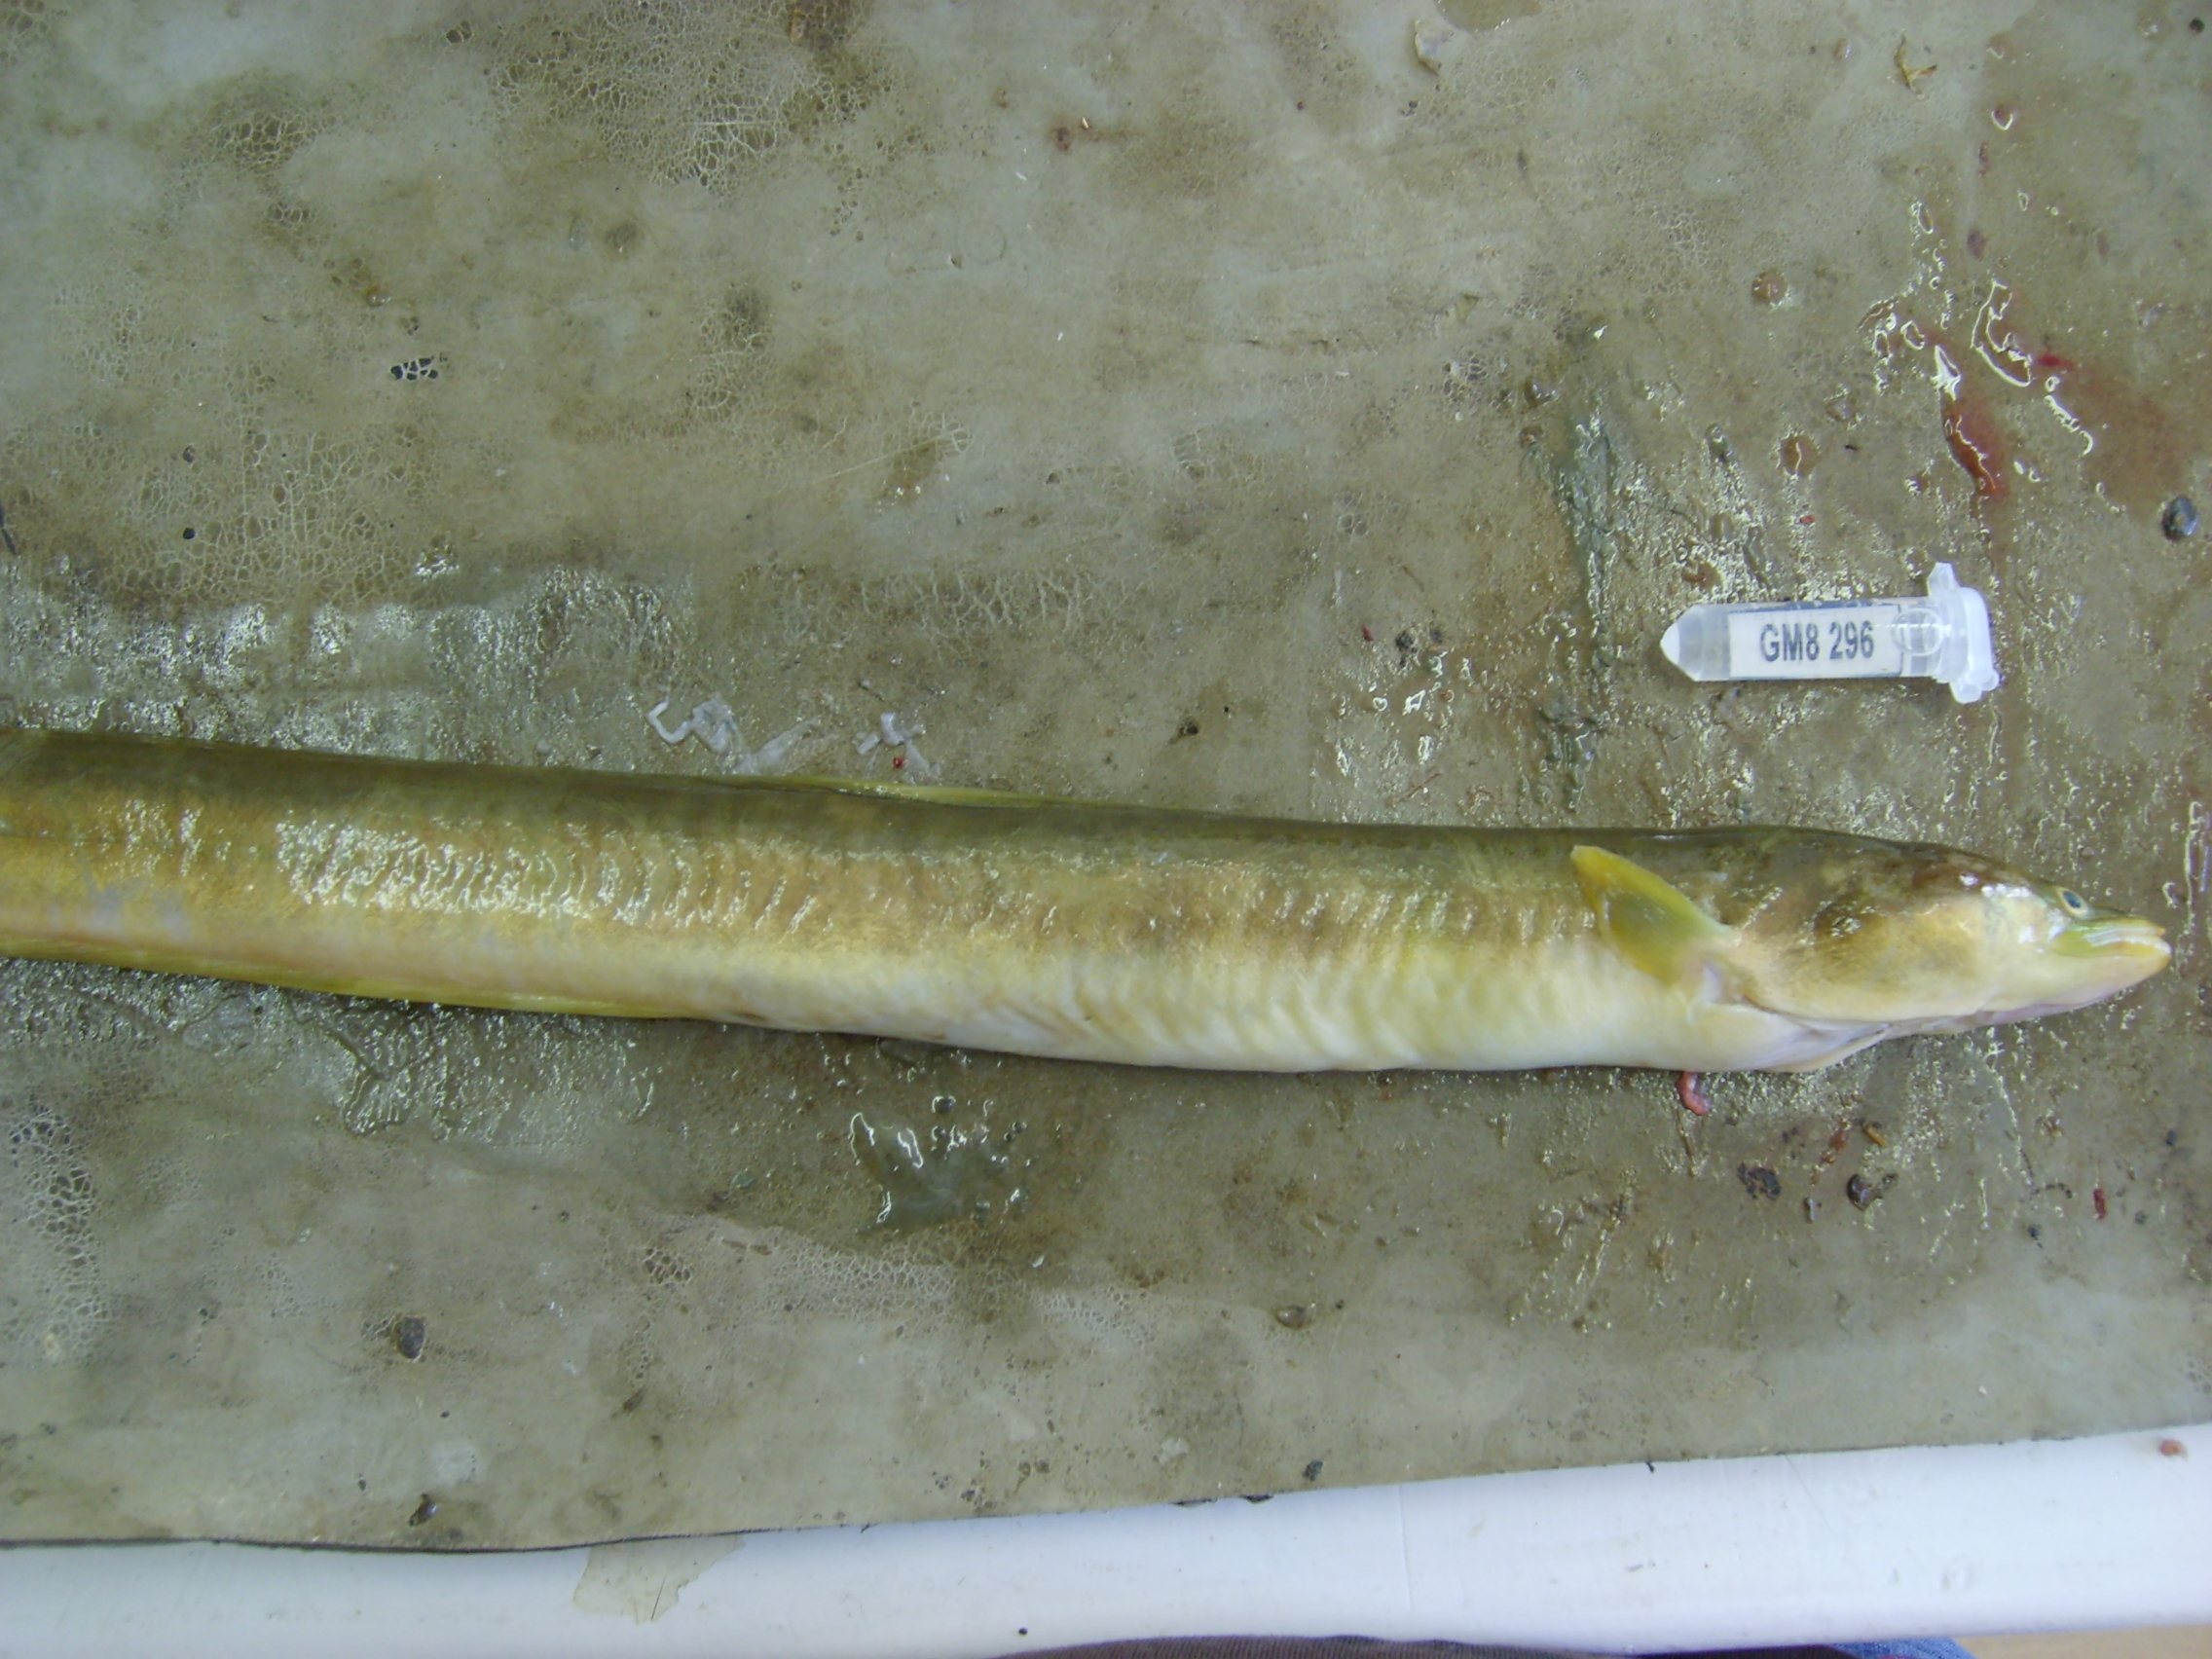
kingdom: Animalia
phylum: Chordata
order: Anguilliformes
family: Anguillidae
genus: Anguilla
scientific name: Anguilla mossambica
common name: African longfin eel
